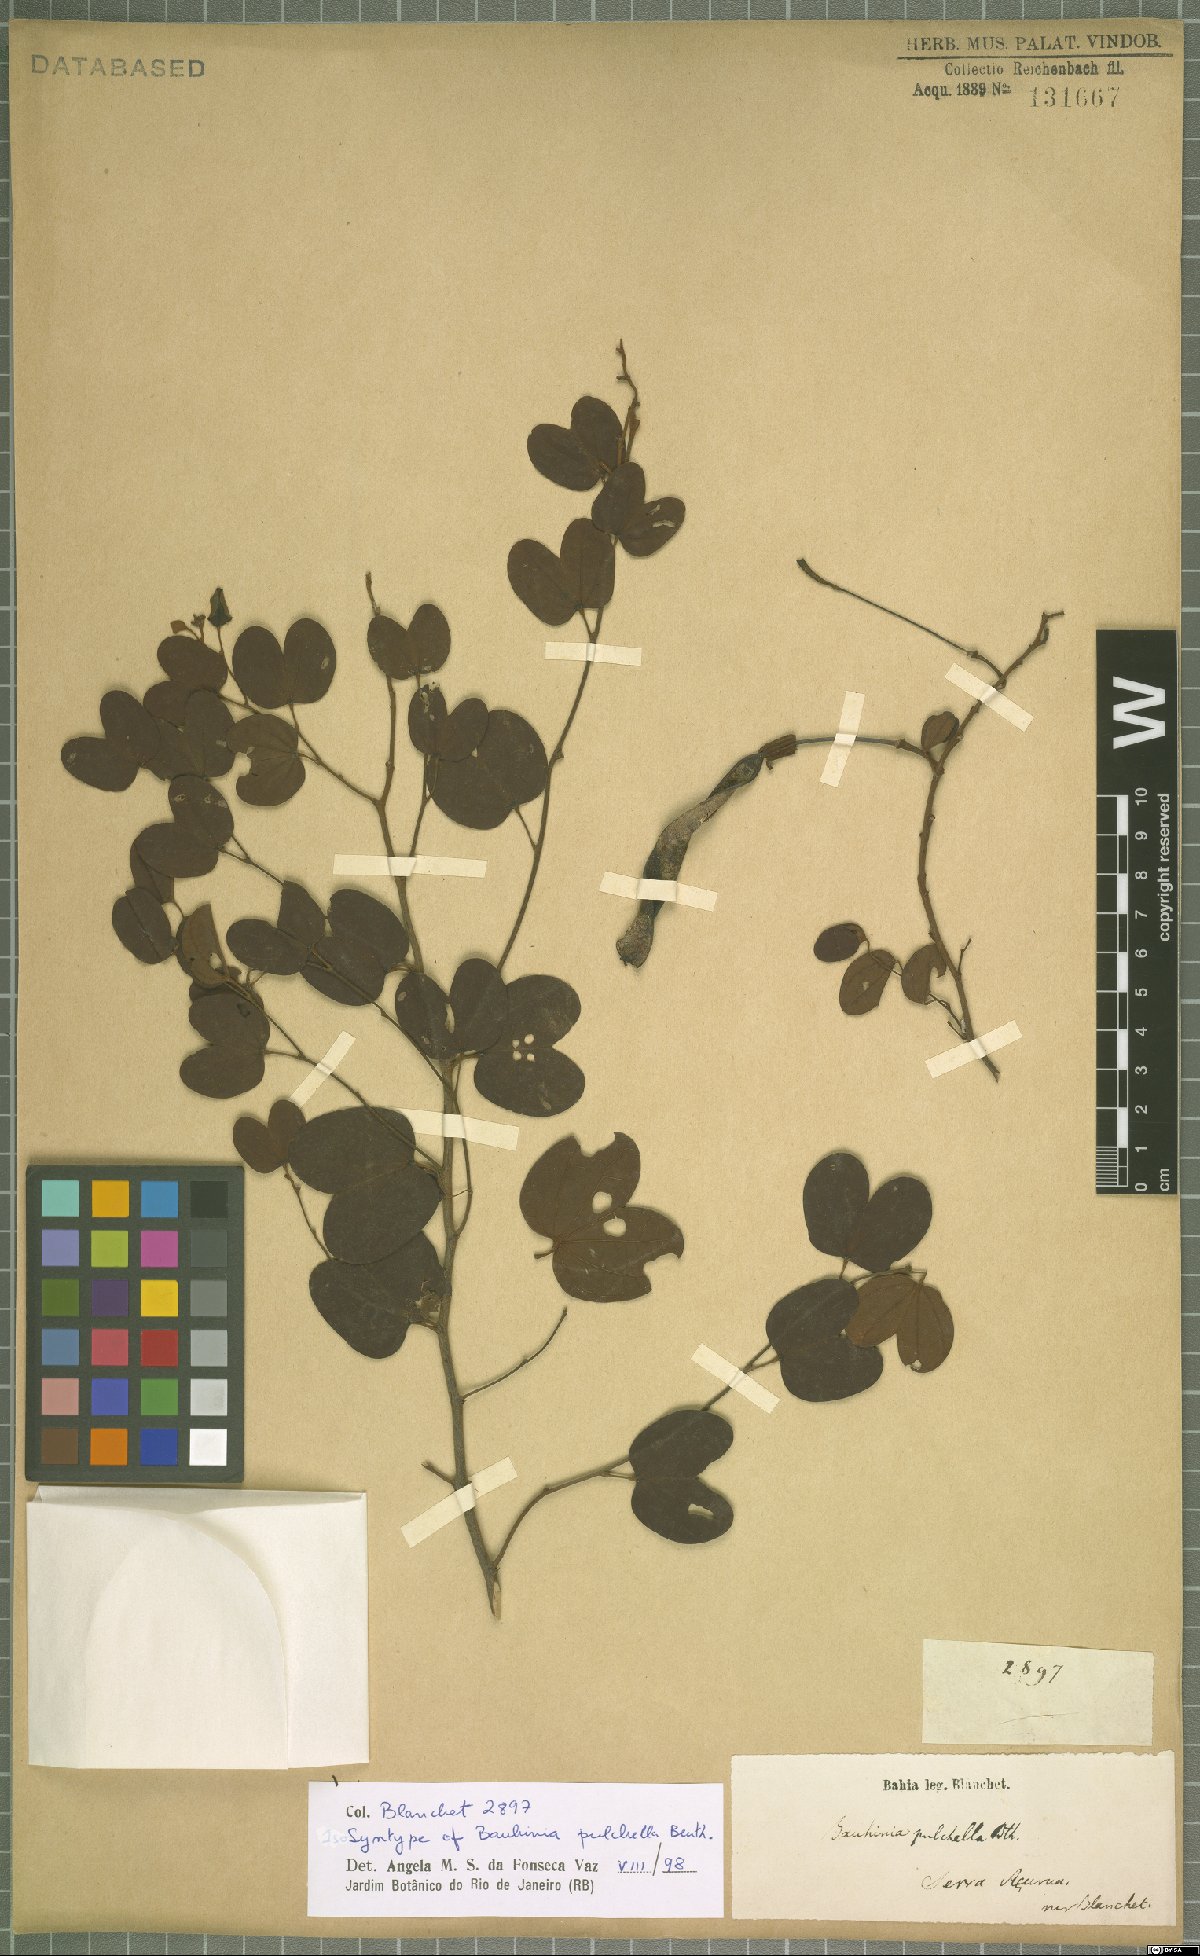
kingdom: Plantae
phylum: Tracheophyta
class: Magnoliopsida
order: Fabales
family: Fabaceae
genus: Bauhinia
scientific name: Bauhinia pulchella
